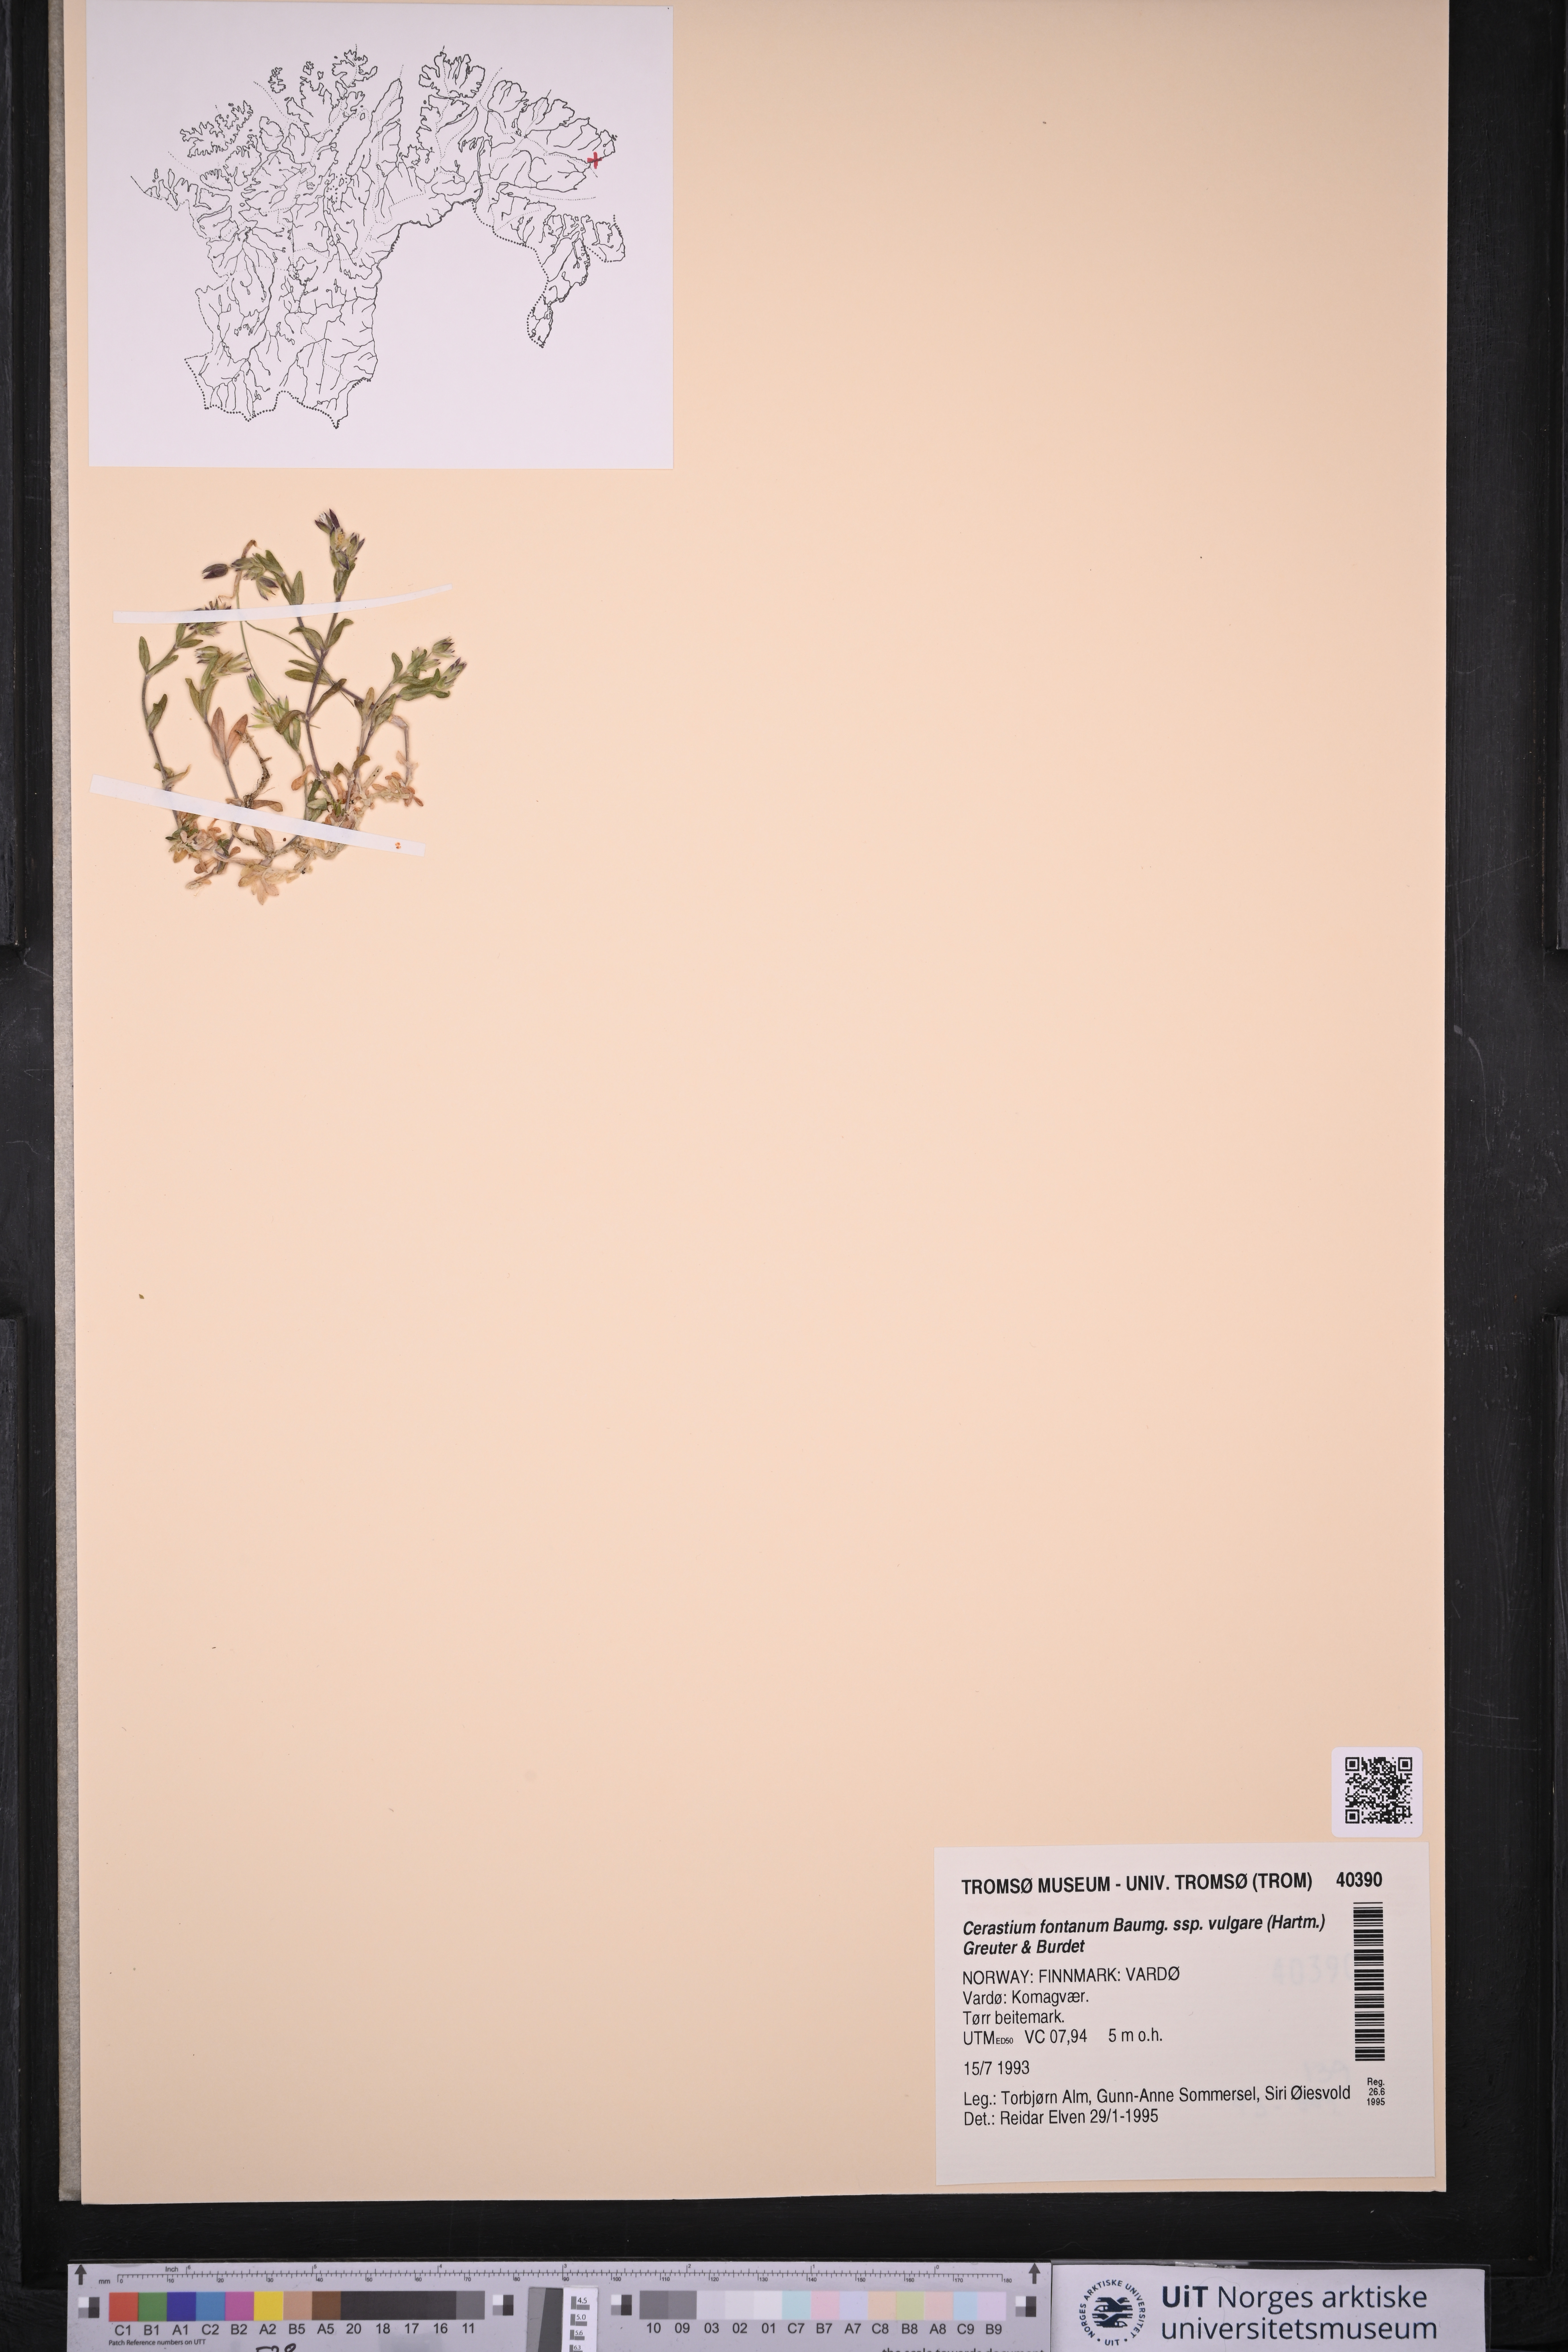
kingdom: Plantae
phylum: Tracheophyta
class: Magnoliopsida
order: Caryophyllales
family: Caryophyllaceae
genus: Cerastium
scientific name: Cerastium holosteoides
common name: Big chickweed
